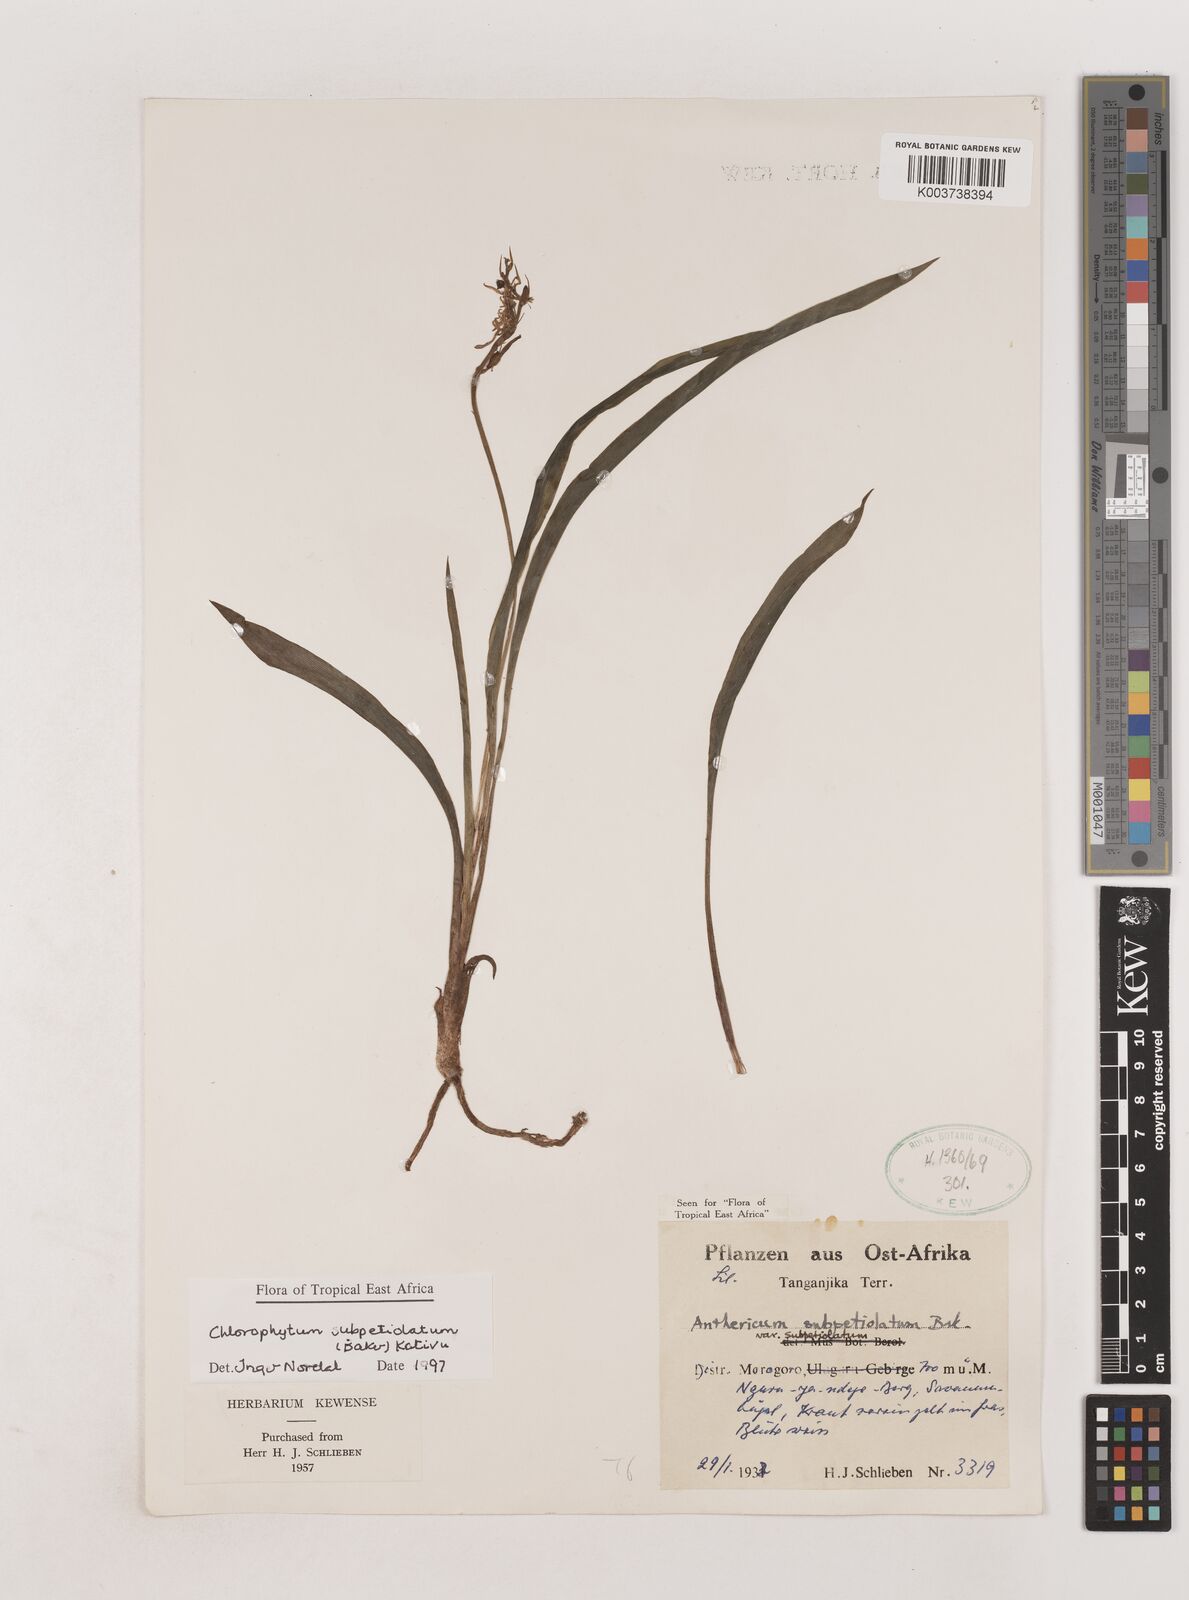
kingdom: Plantae
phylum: Tracheophyta
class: Liliopsida
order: Asparagales
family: Asparagaceae
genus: Chlorophytum
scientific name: Chlorophytum subpetiolatum
